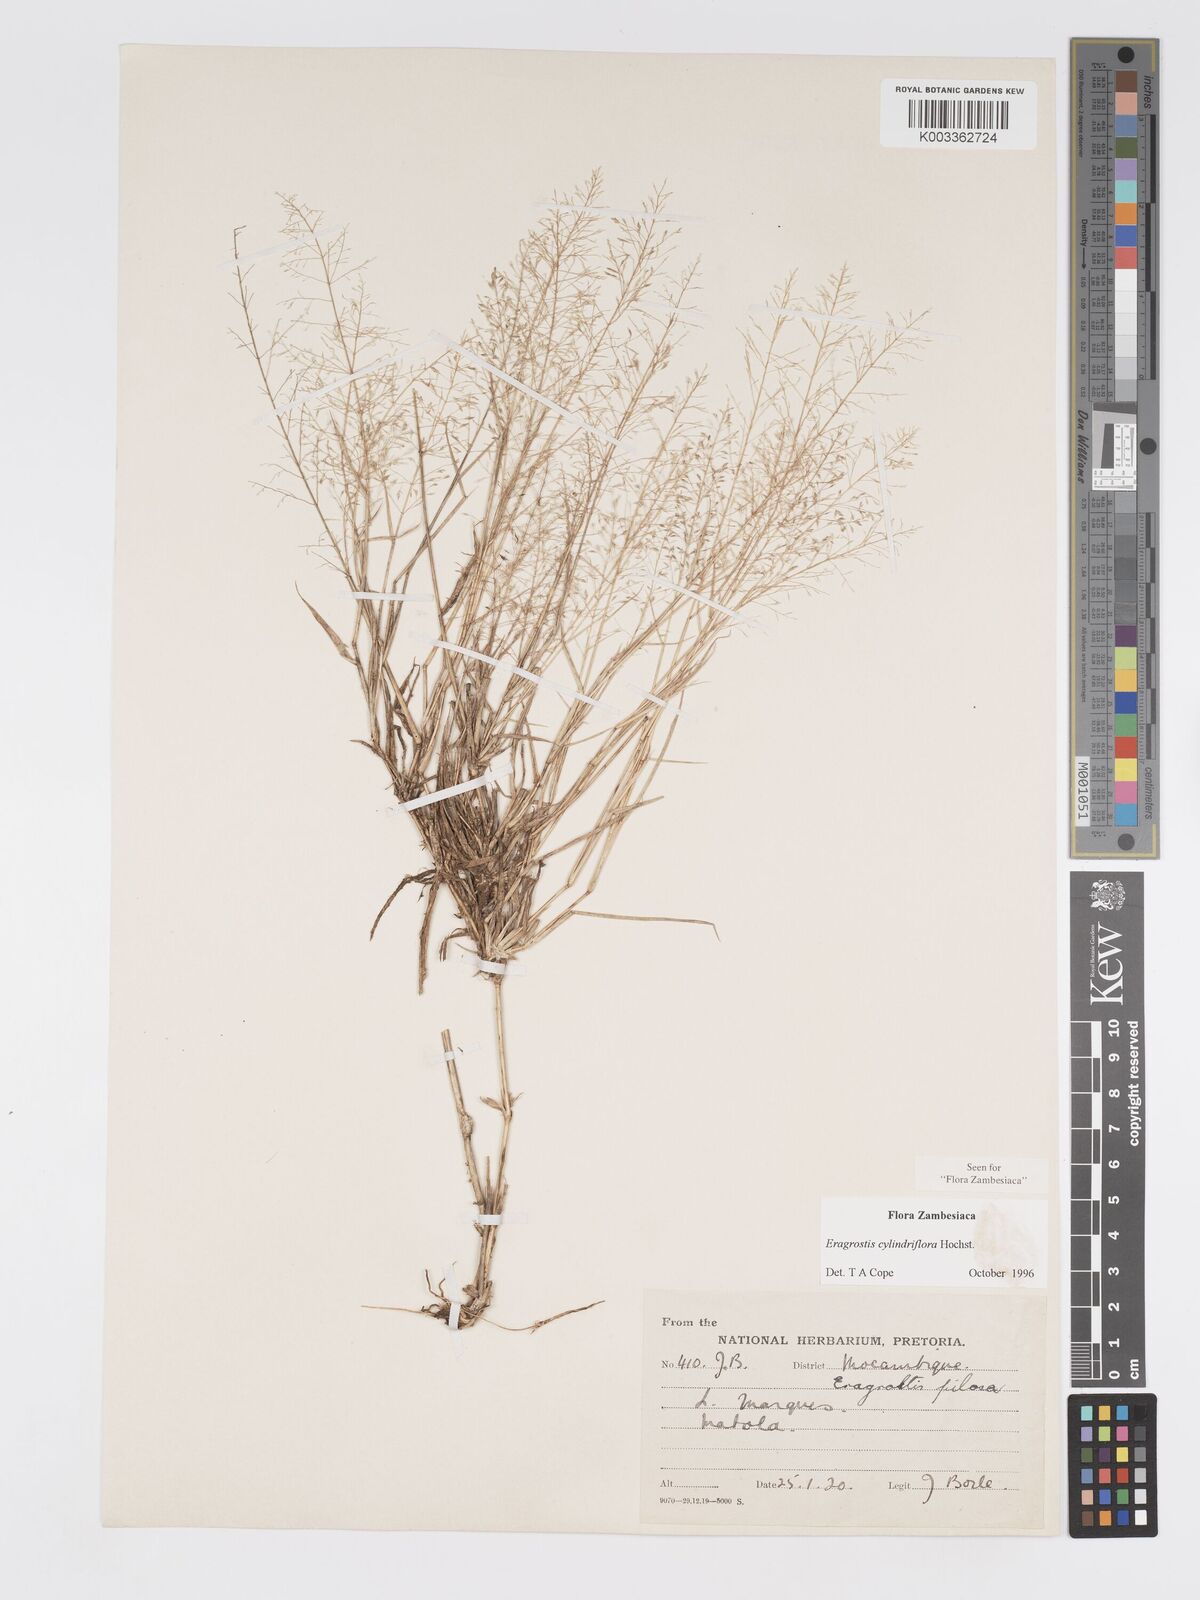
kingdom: Plantae
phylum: Tracheophyta
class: Liliopsida
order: Poales
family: Poaceae
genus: Eragrostis
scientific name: Eragrostis cylindriflora
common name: Cylinderflower lovegrass
